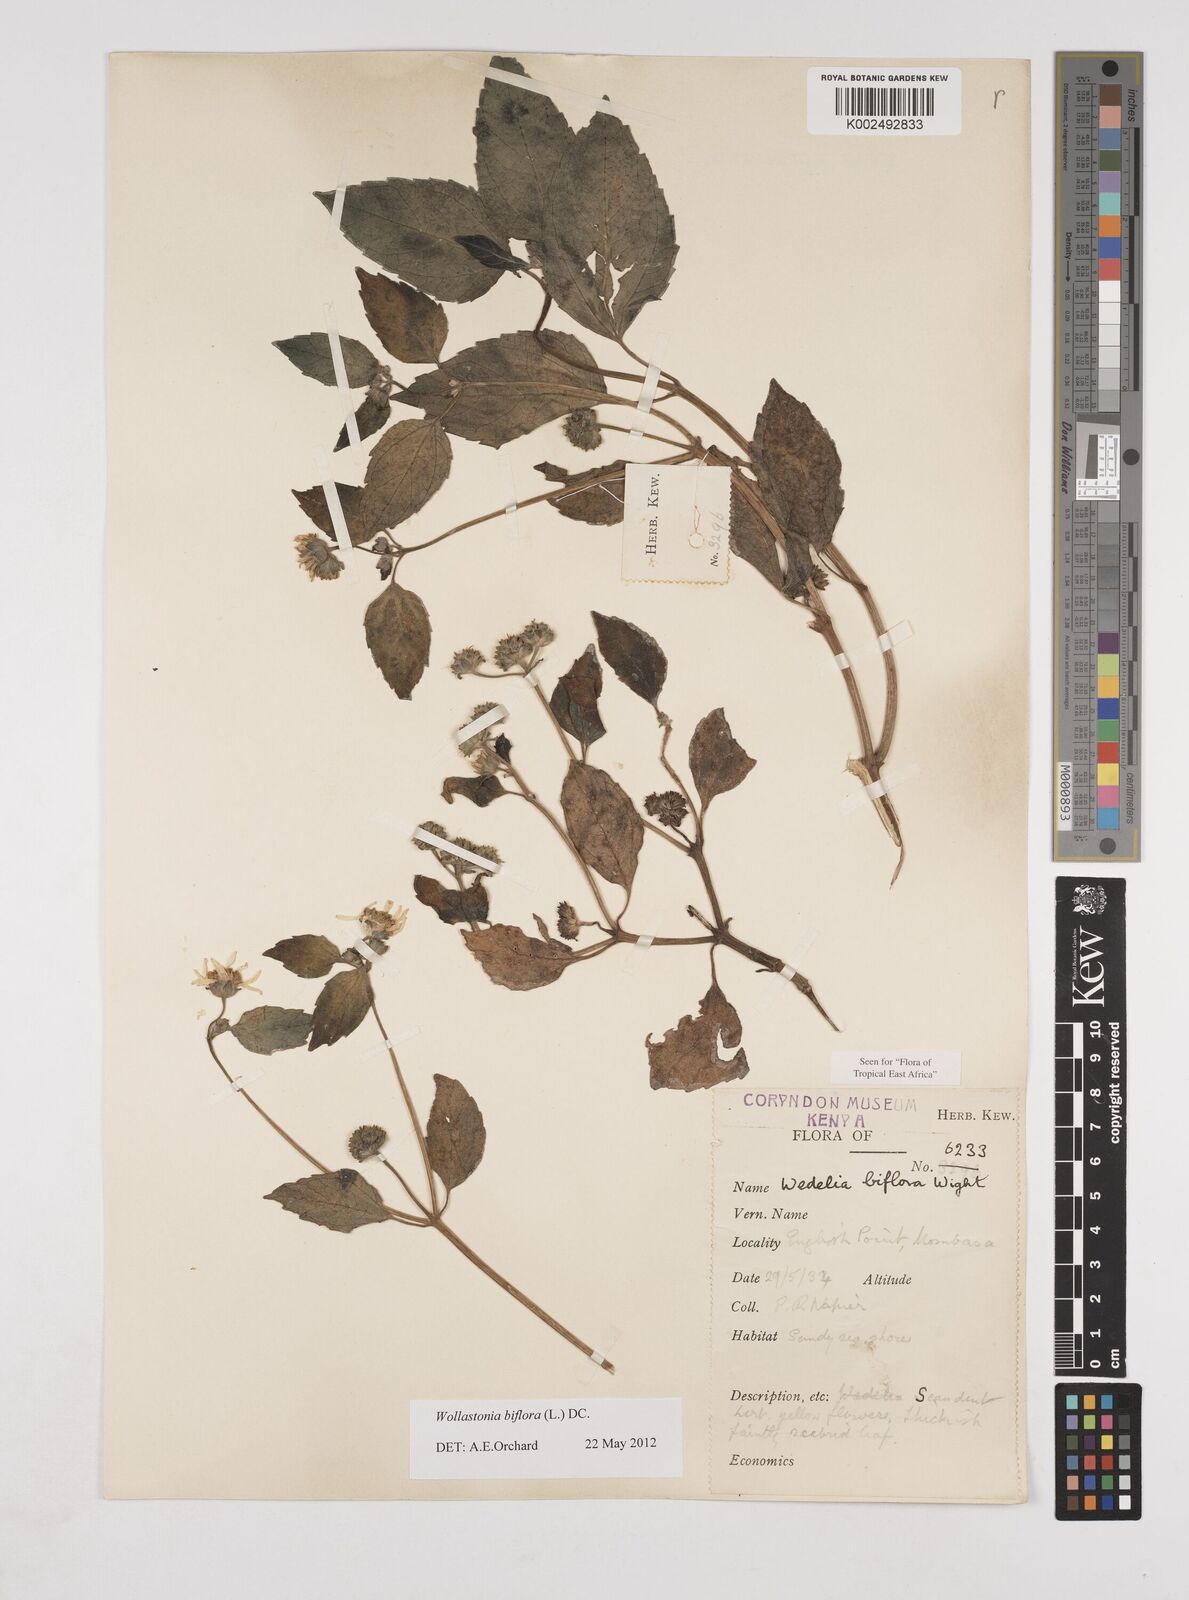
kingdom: Plantae
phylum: Tracheophyta
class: Magnoliopsida
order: Asterales
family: Asteraceae
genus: Wollastonia
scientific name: Wollastonia biflora
